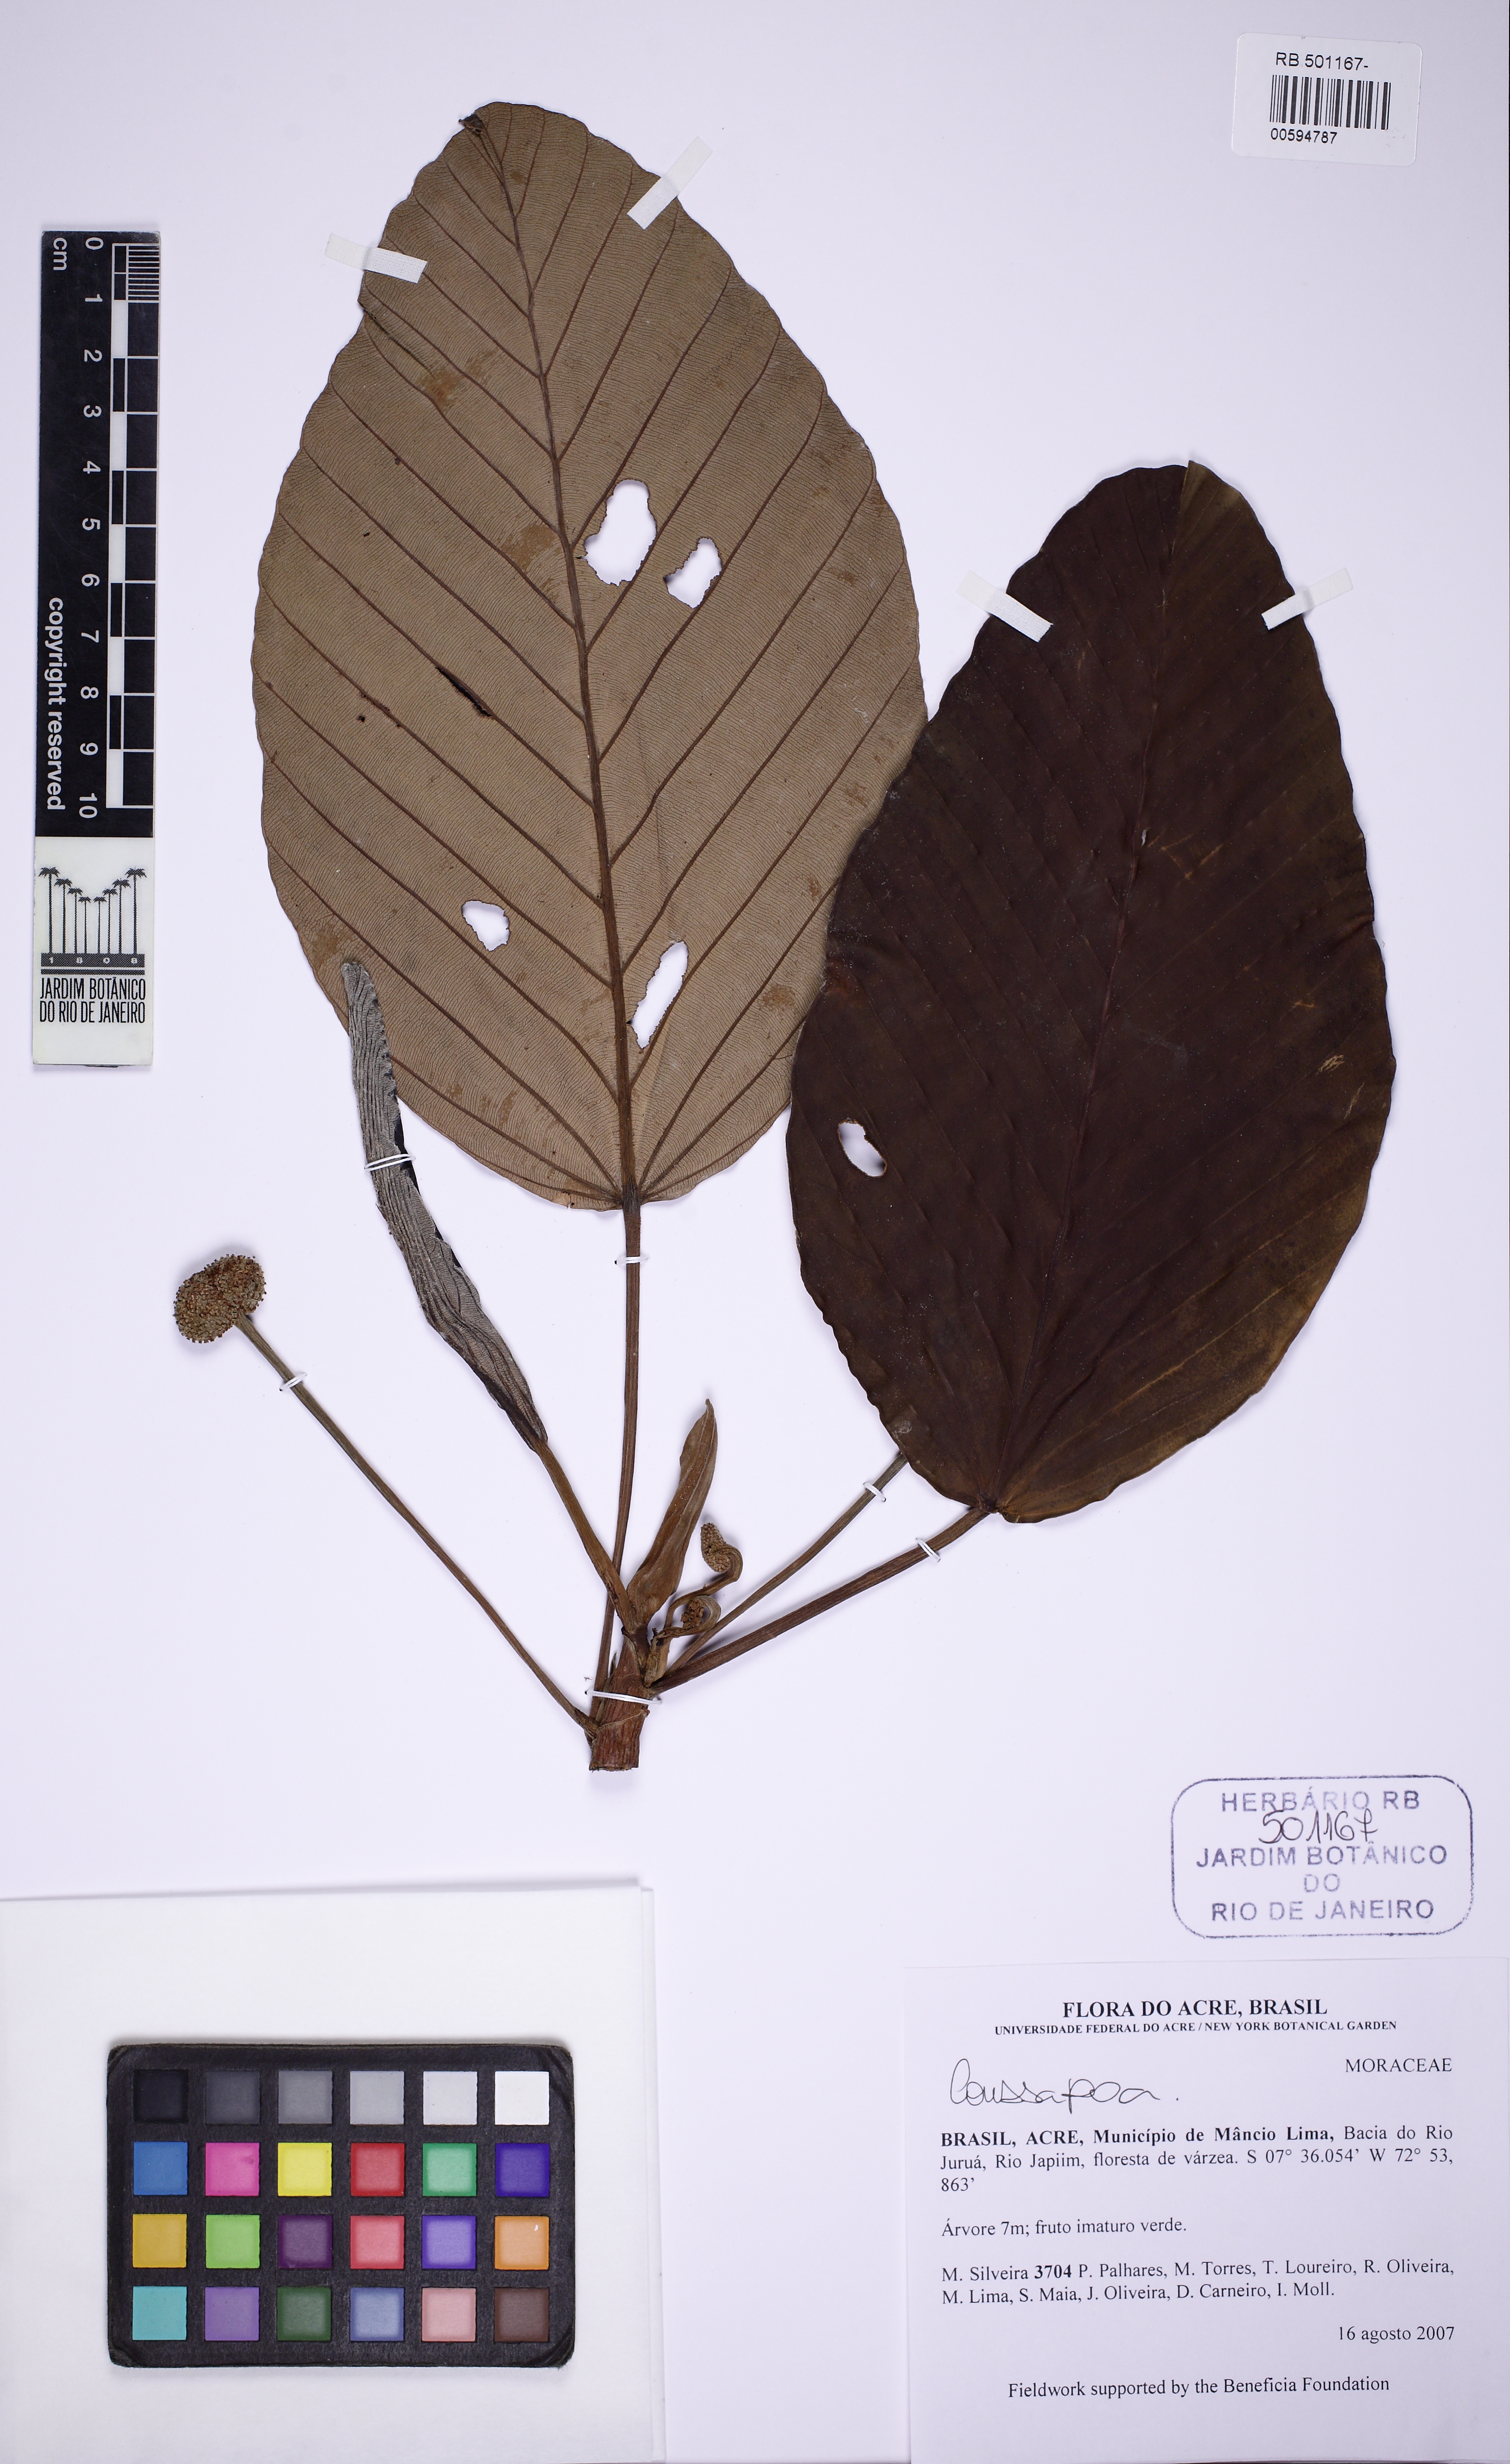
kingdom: Plantae
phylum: Tracheophyta
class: Magnoliopsida
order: Rosales
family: Urticaceae
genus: Coussapoa
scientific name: Coussapoa
